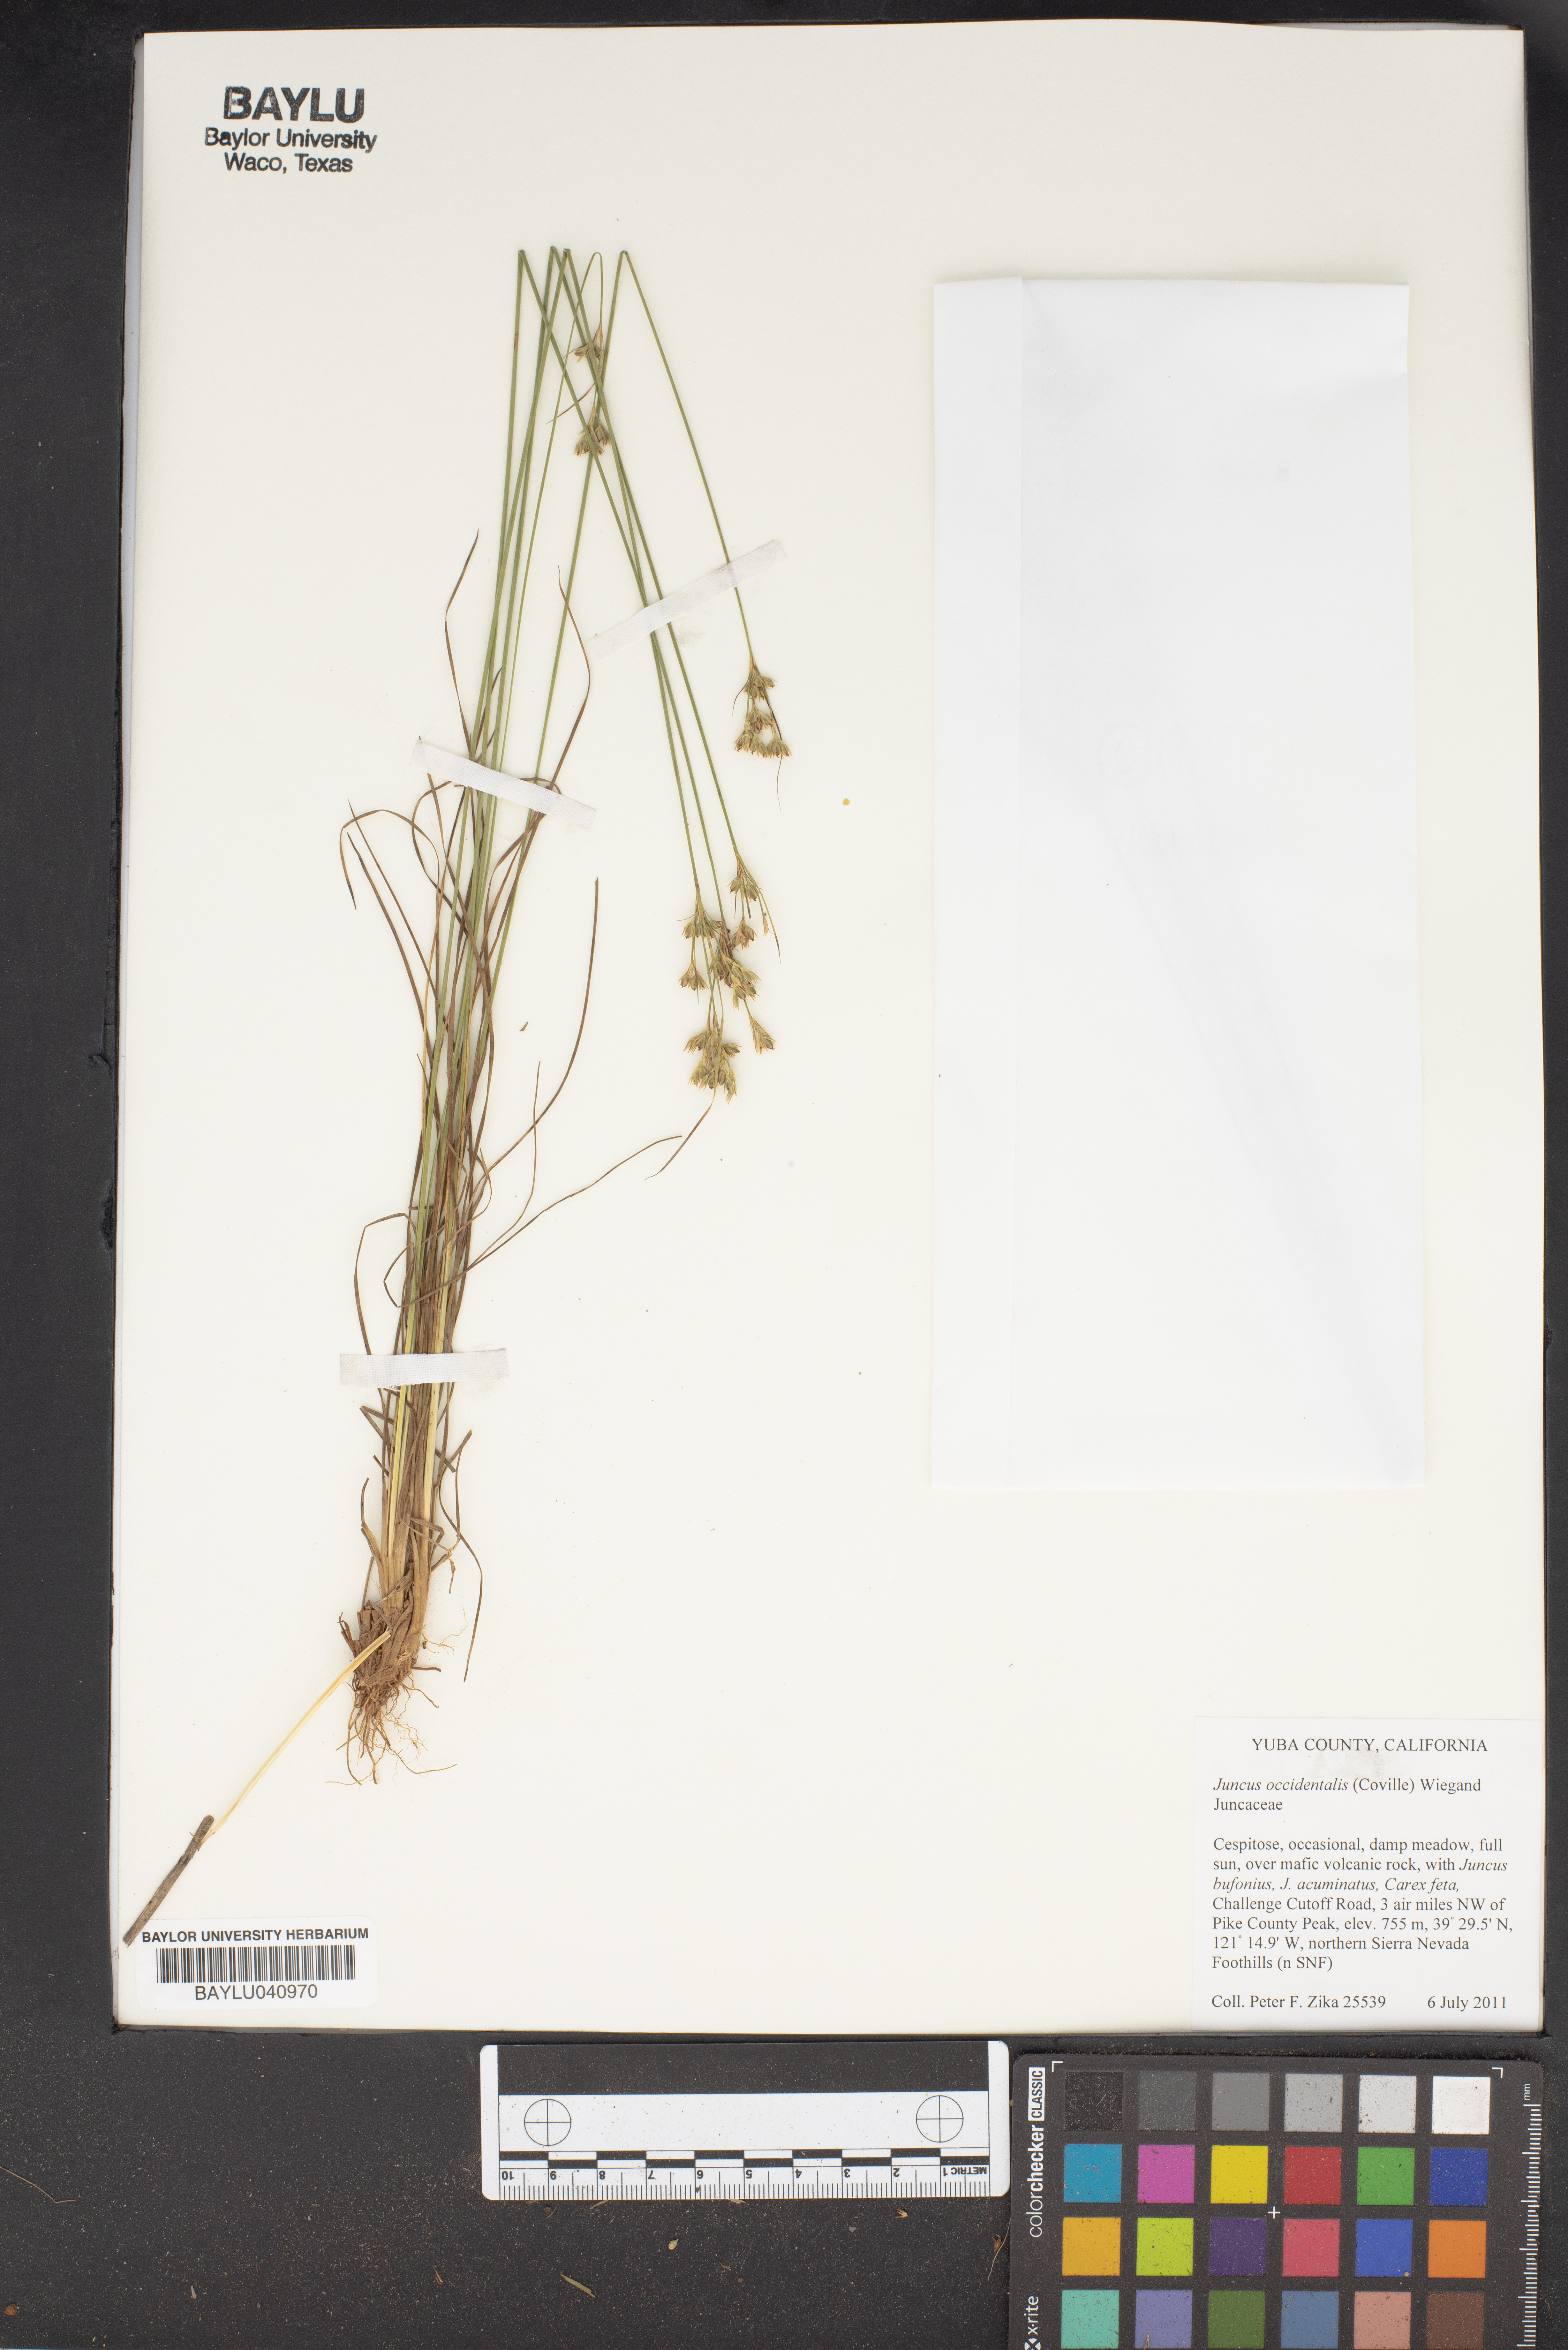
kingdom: Plantae
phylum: Tracheophyta
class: Liliopsida
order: Poales
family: Juncaceae
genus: Juncus
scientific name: Juncus occidentalis
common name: Western rush
